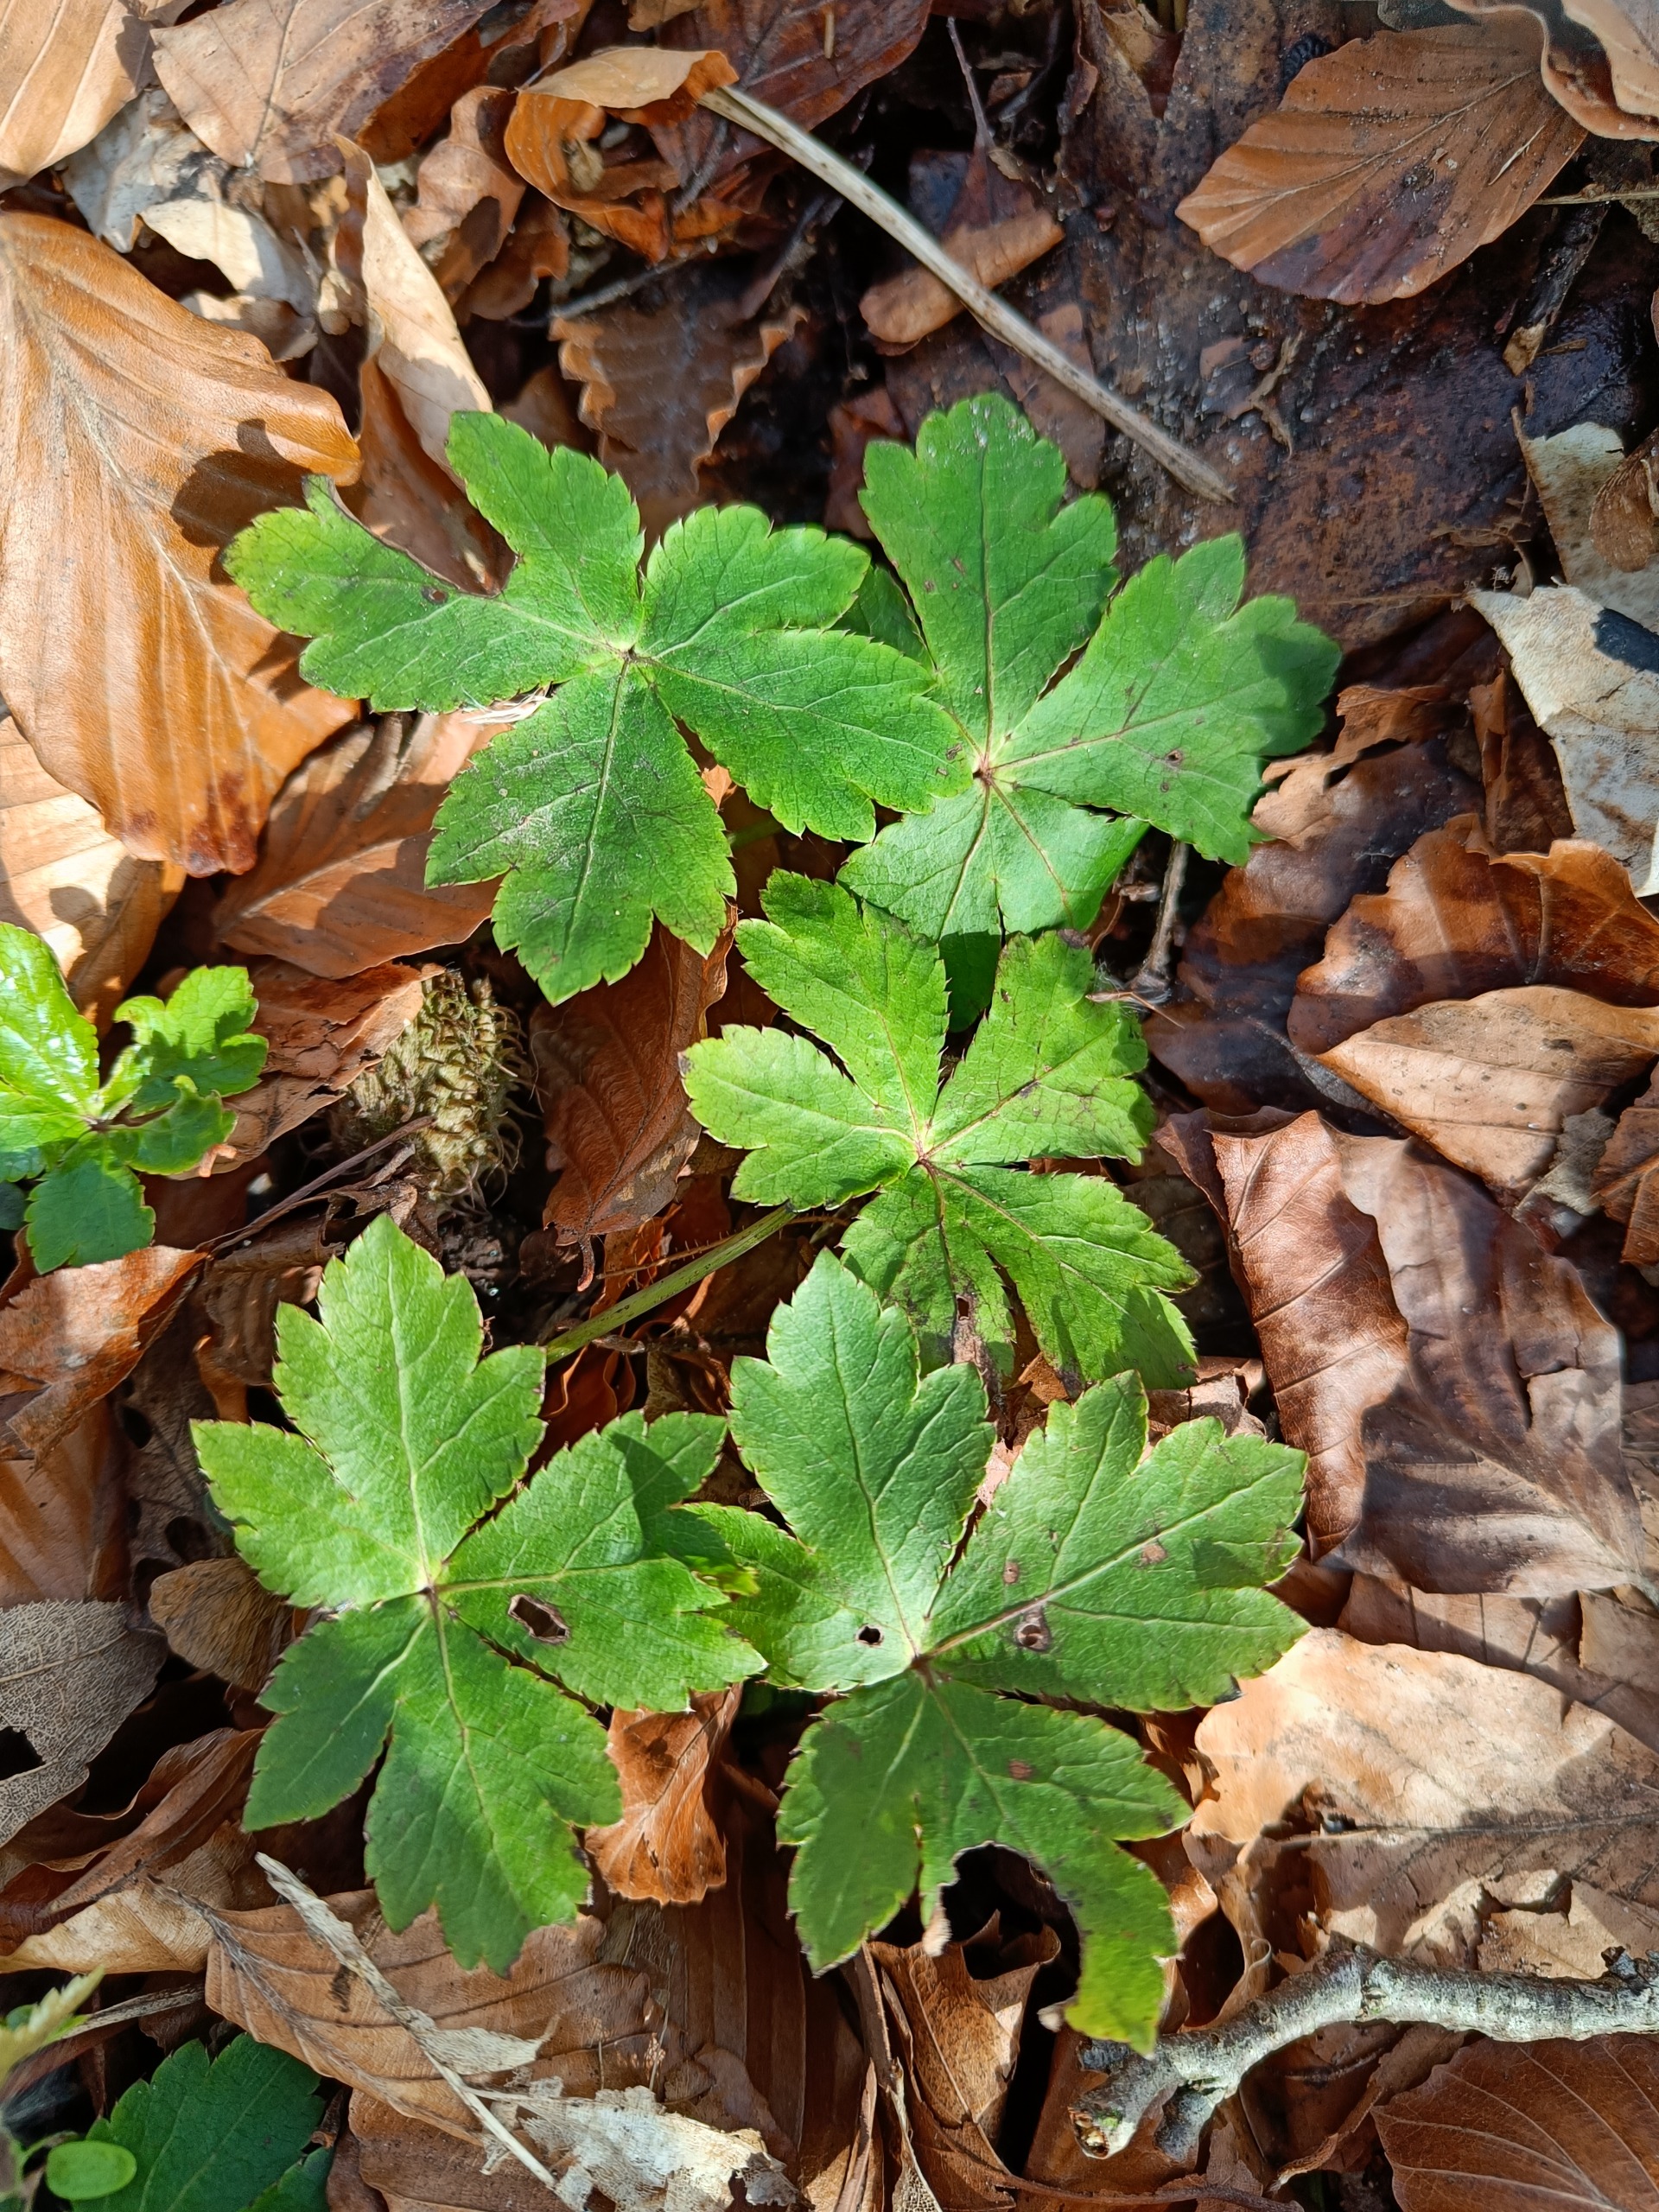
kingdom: Plantae
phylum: Tracheophyta
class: Magnoliopsida
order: Apiales
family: Apiaceae
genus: Sanicula
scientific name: Sanicula europaea
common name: Sanikel
